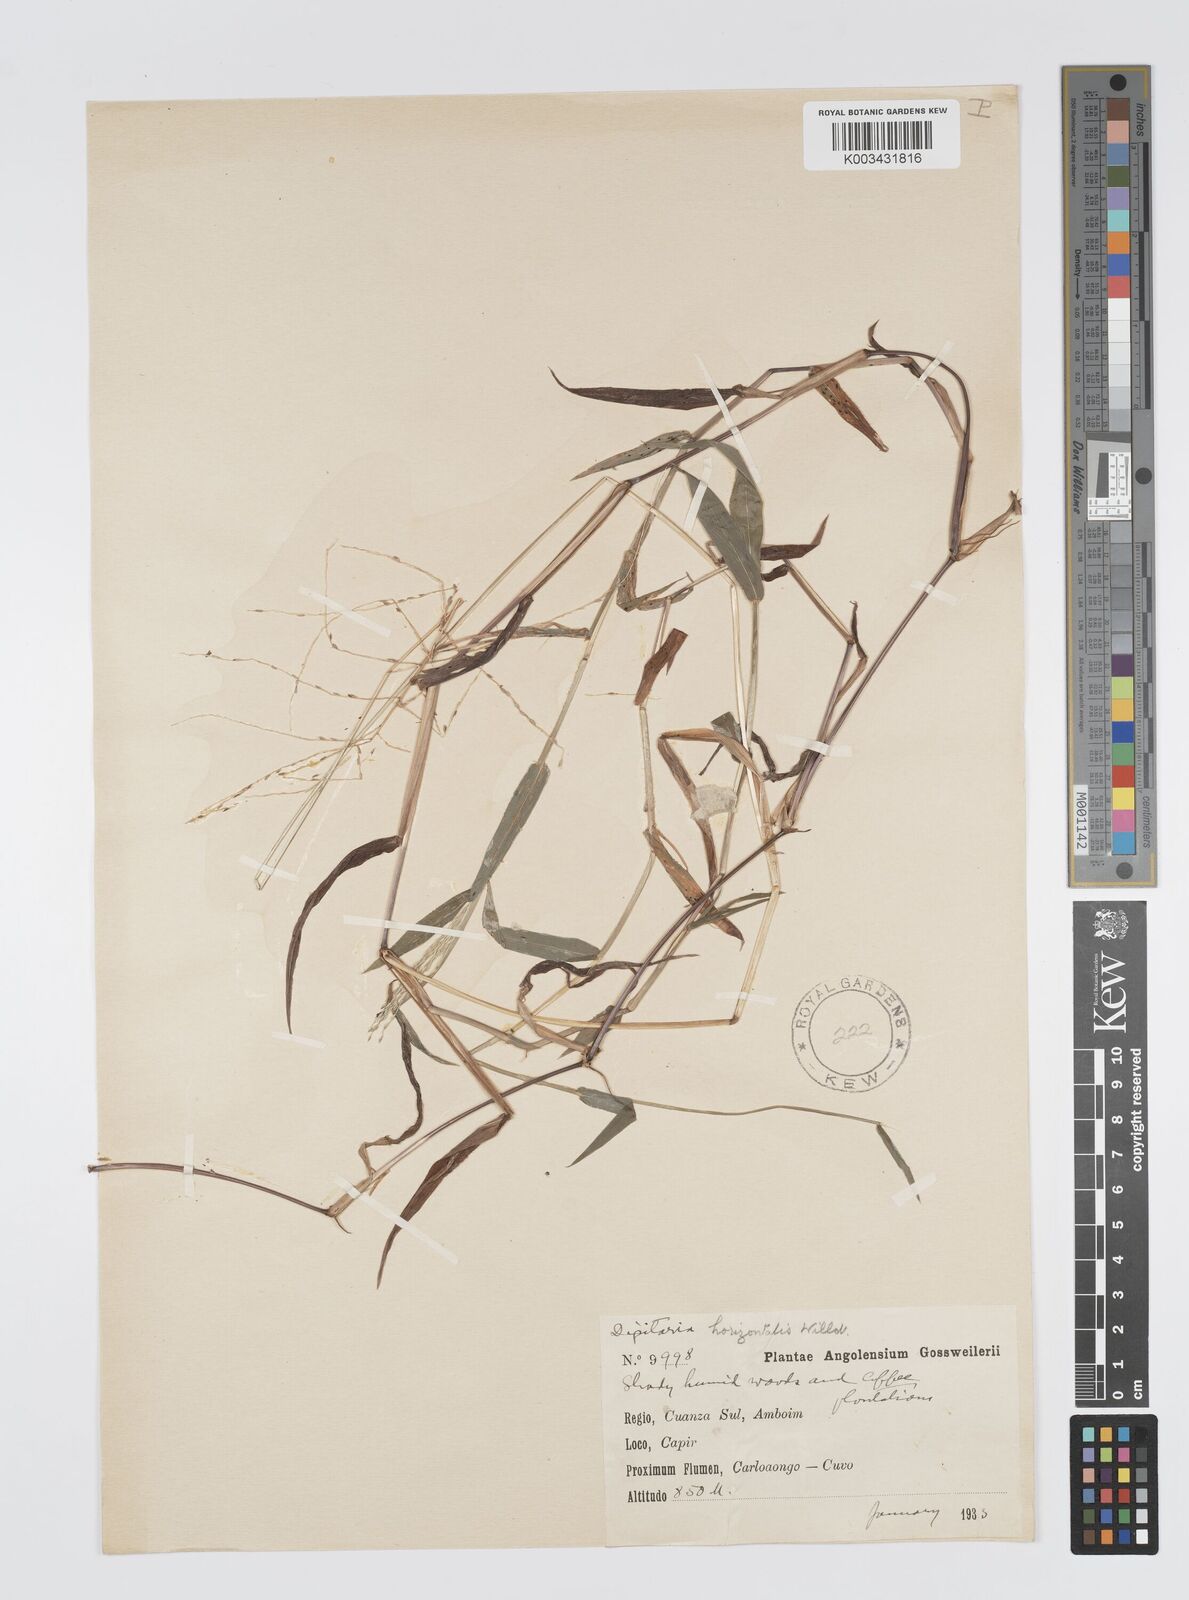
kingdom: Plantae
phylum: Tracheophyta
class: Liliopsida
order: Poales
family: Poaceae
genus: Digitaria
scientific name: Digitaria pearsonii
